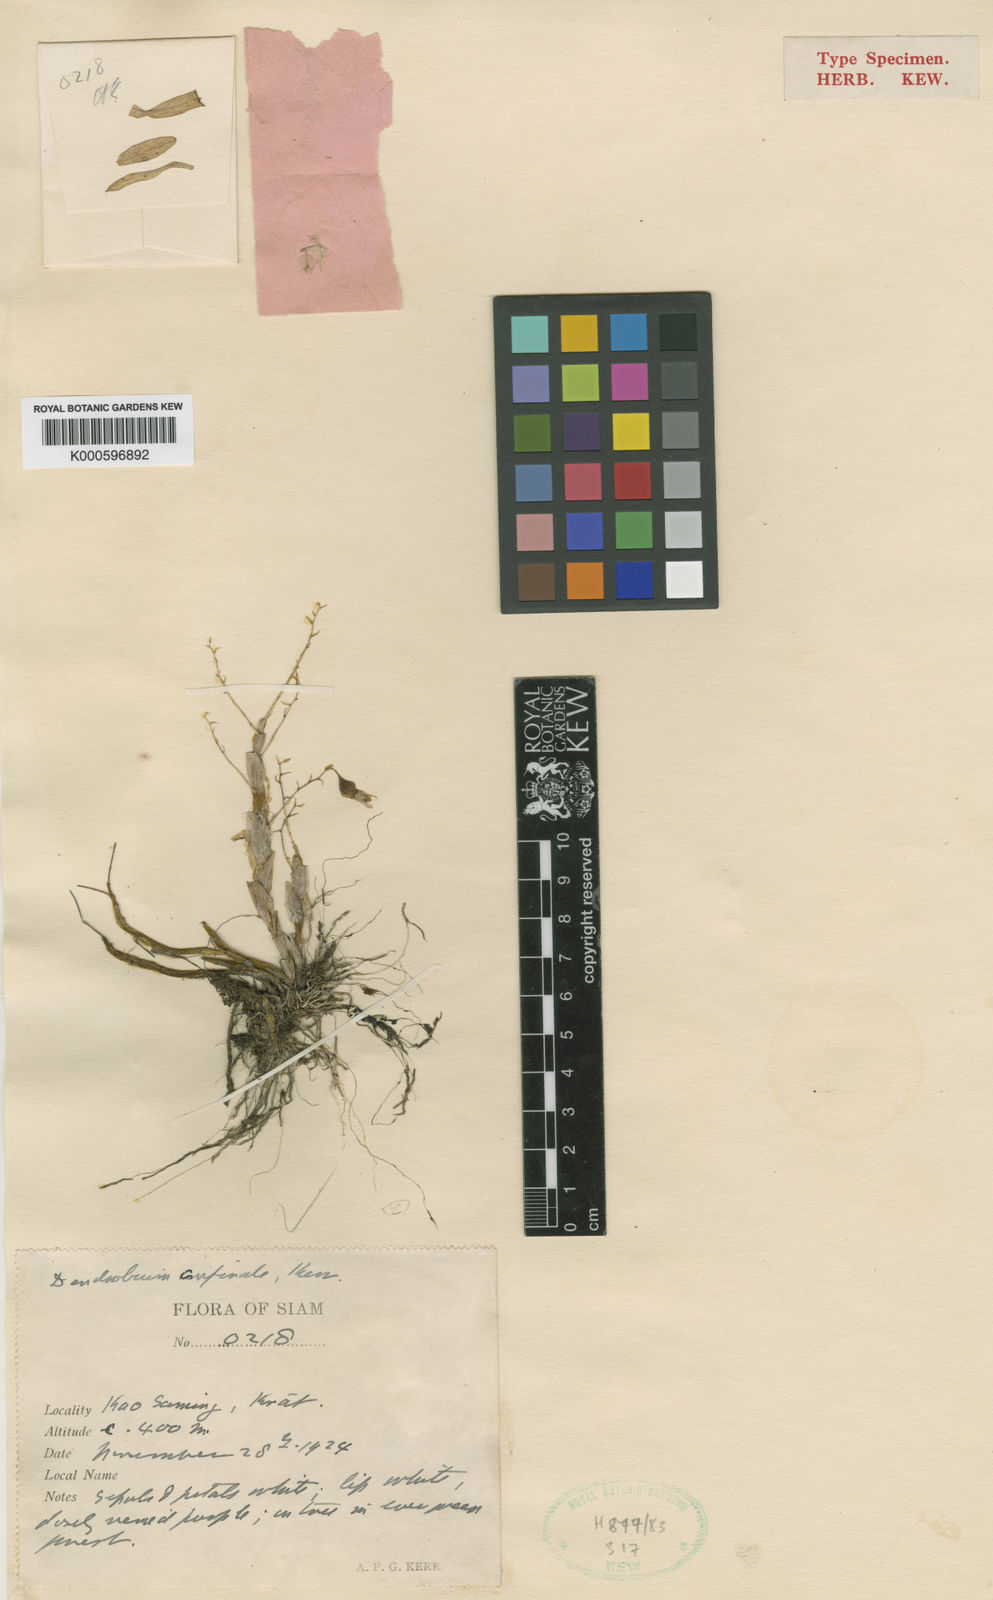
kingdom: Plantae
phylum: Tracheophyta
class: Liliopsida
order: Asparagales
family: Orchidaceae
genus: Dendrobium
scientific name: Dendrobium confinale
